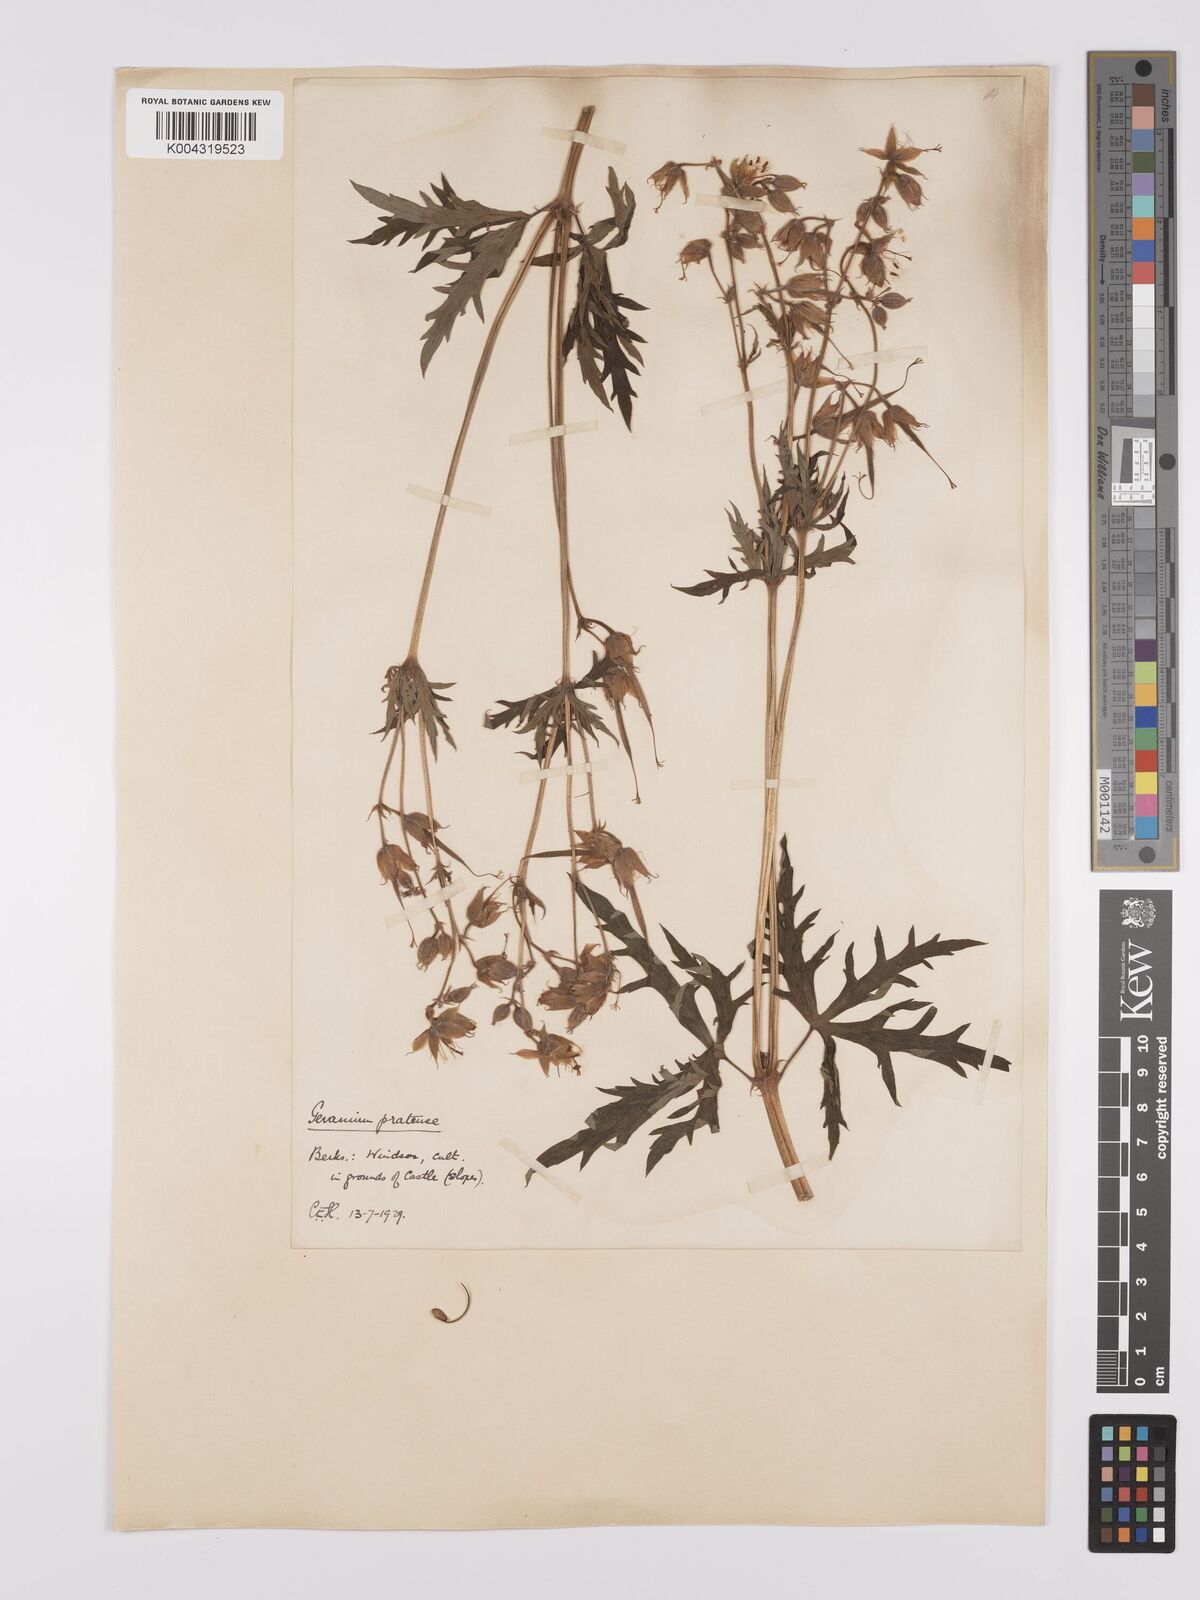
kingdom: Plantae
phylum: Tracheophyta
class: Magnoliopsida
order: Geraniales
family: Geraniaceae
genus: Geranium
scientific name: Geranium pratense
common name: Meadow crane's-bill
